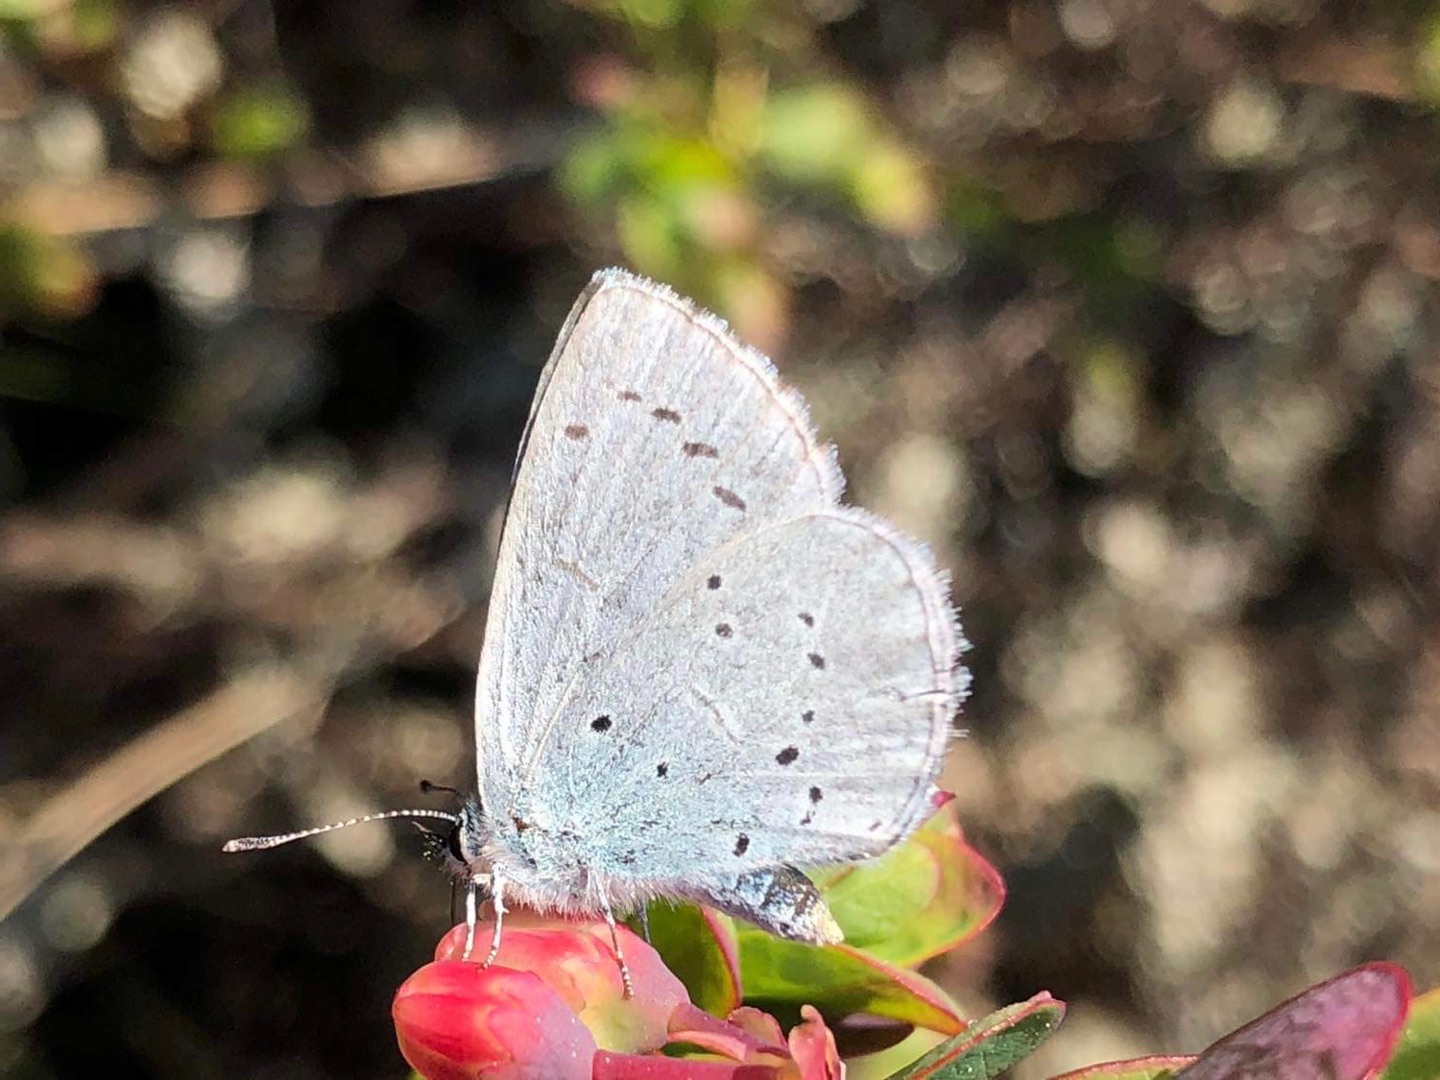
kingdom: Animalia
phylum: Arthropoda
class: Insecta
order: Lepidoptera
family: Lycaenidae
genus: Celastrina
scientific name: Celastrina argiolus
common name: Skovblåfugl
